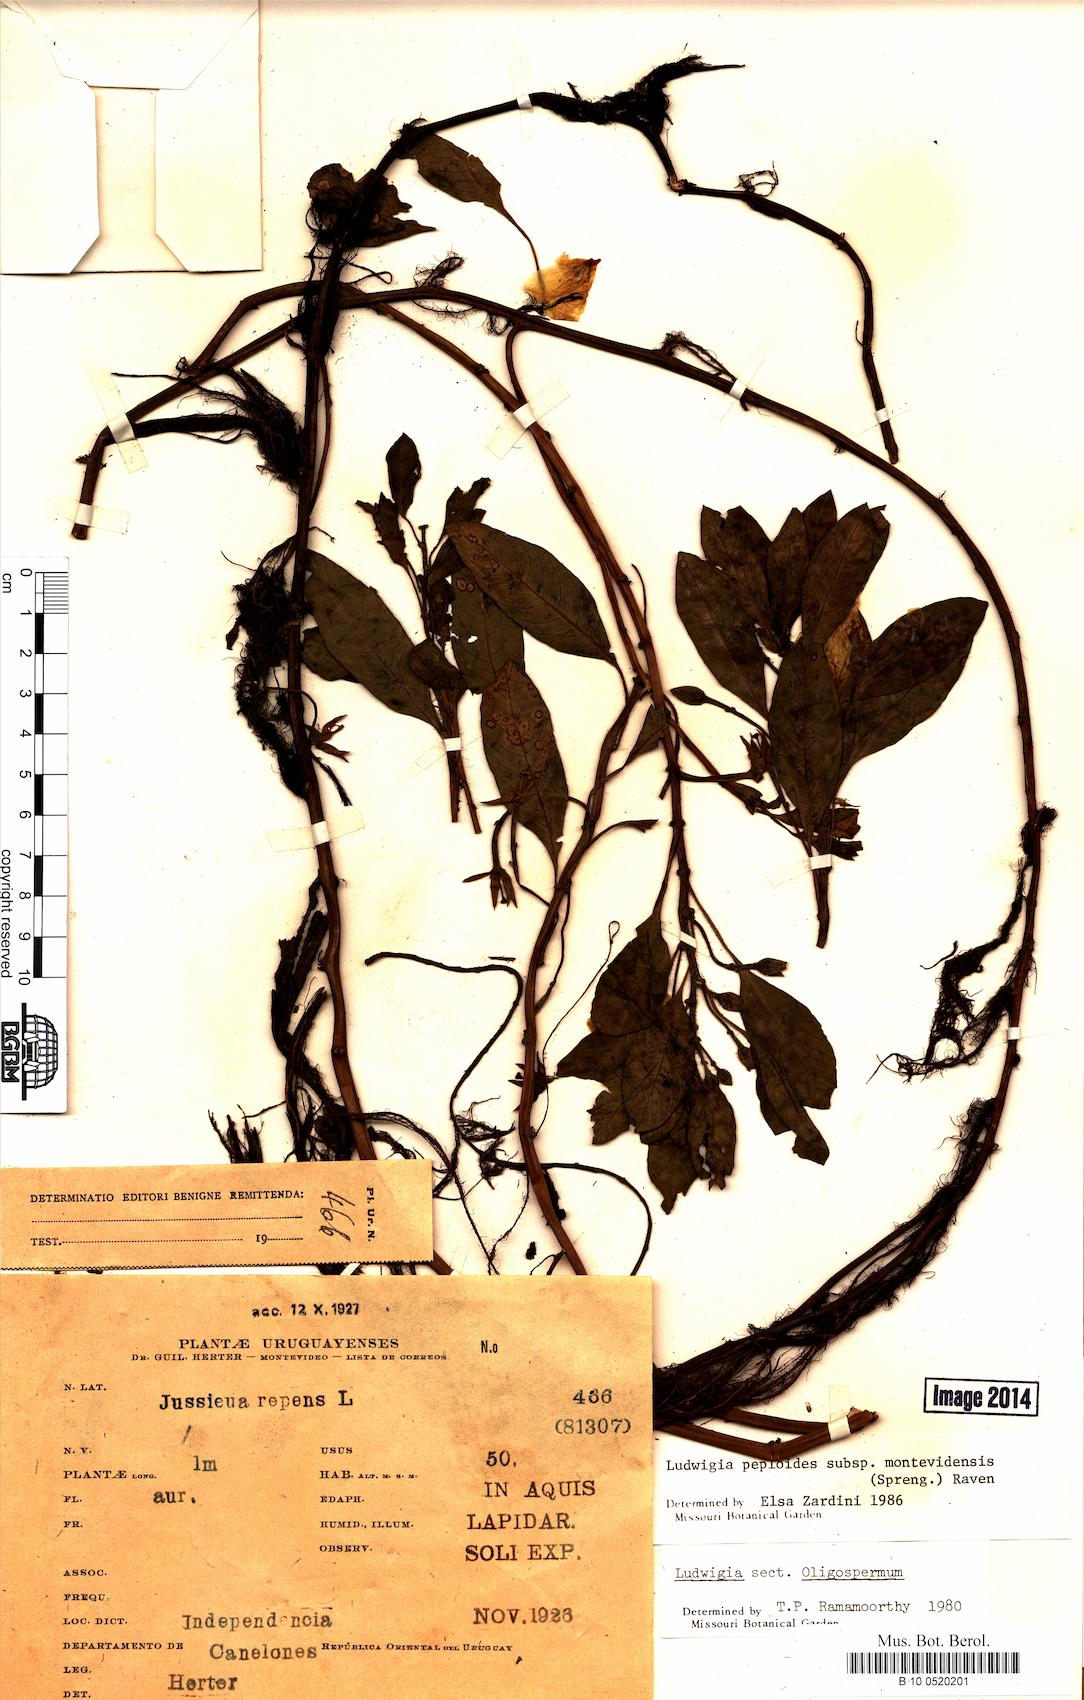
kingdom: Plantae
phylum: Tracheophyta
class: Magnoliopsida
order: Myrtales
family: Onagraceae
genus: Ludwigia
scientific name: Ludwigia repens
